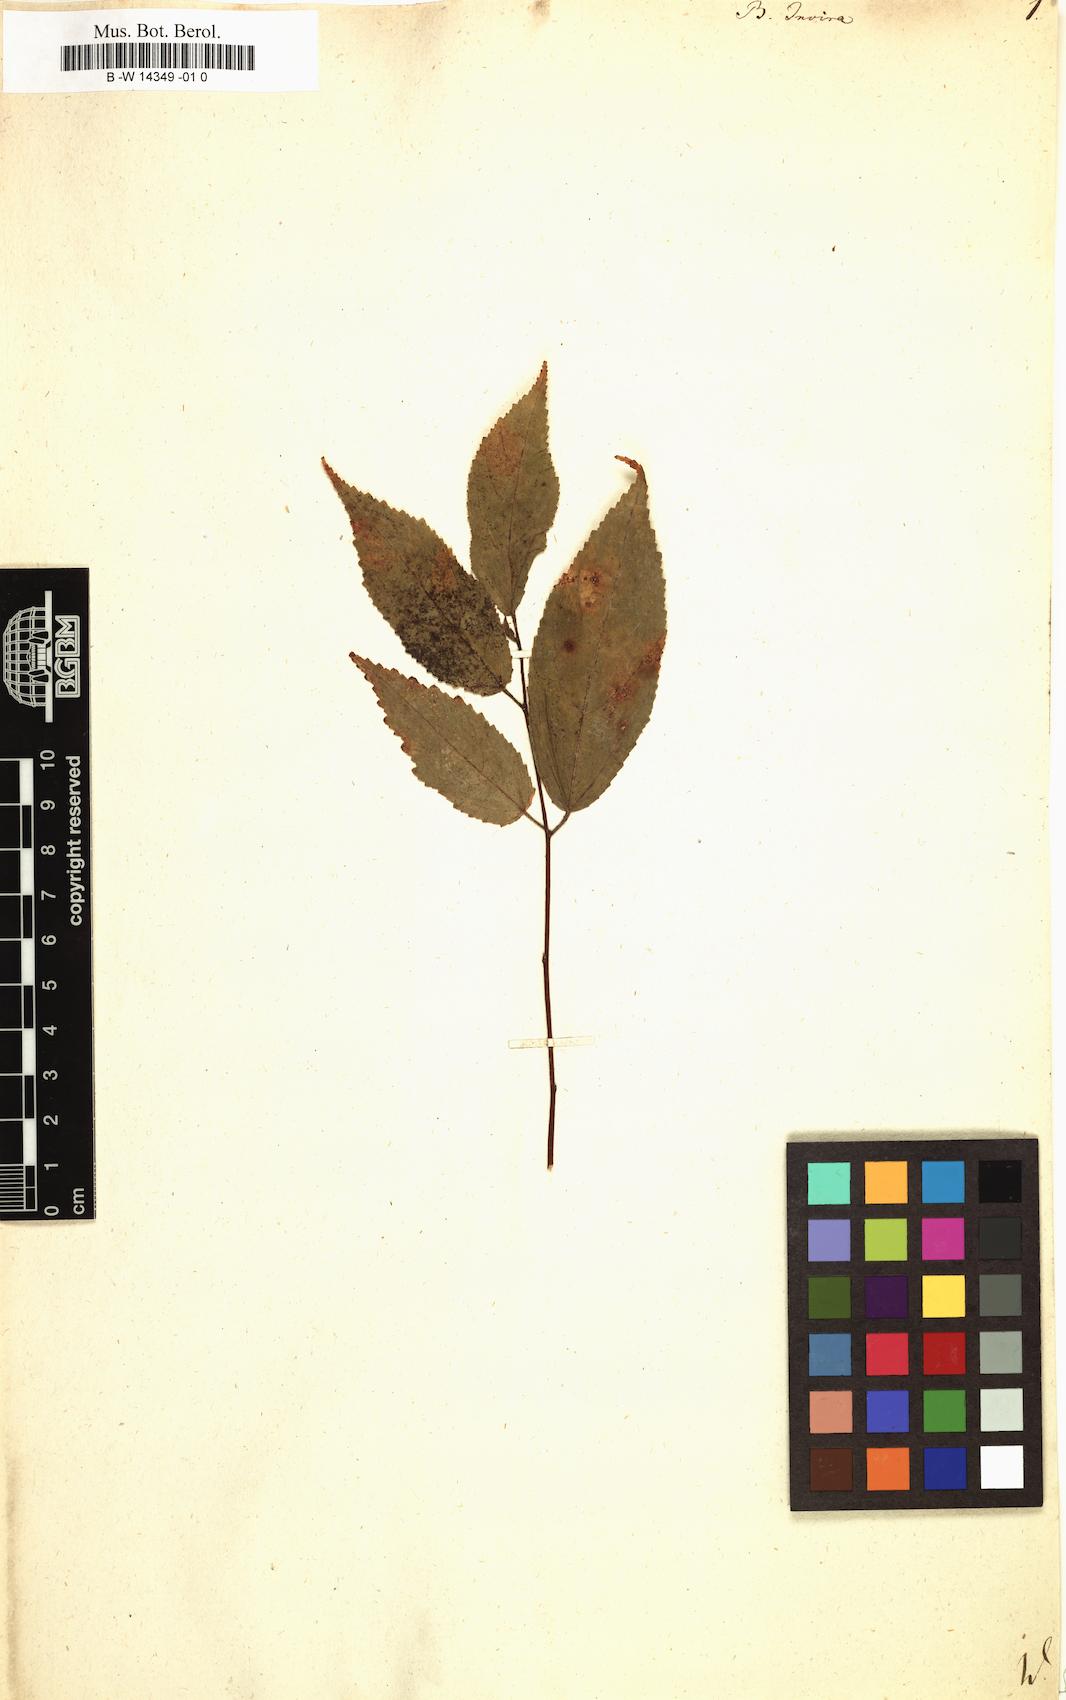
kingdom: Plantae
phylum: Tracheophyta
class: Magnoliopsida
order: Malvales
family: Malvaceae
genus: Guazuma
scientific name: Guazuma invira
